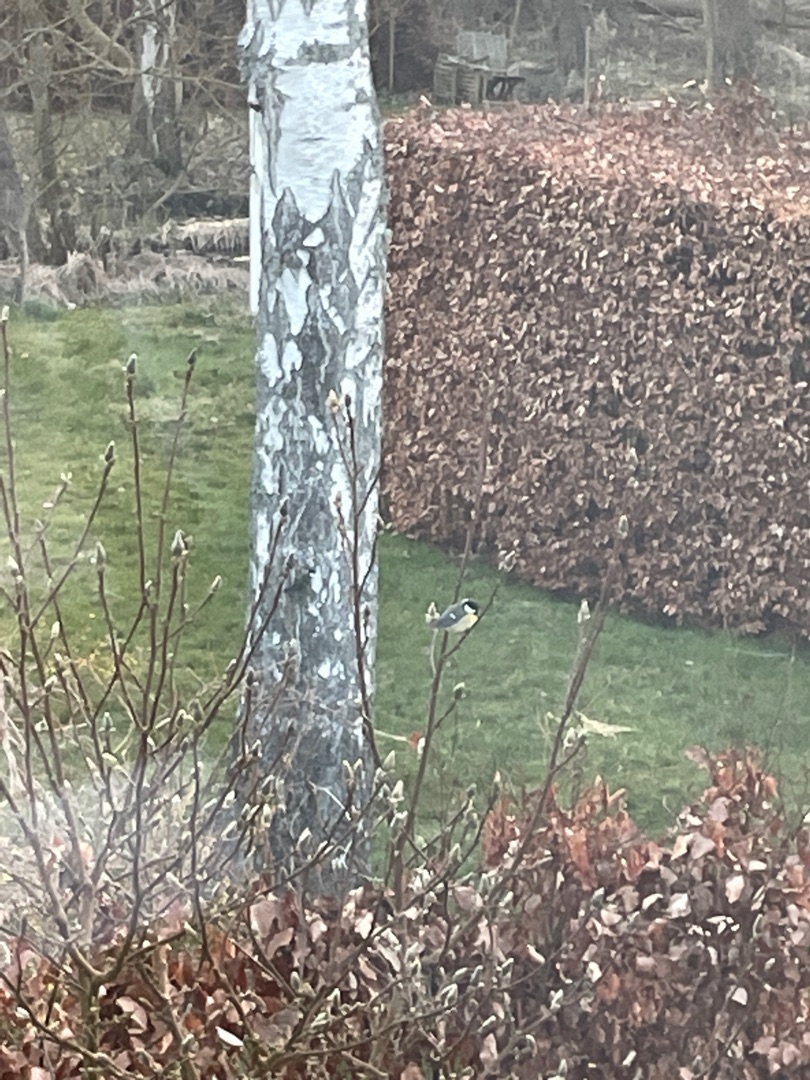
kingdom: Animalia
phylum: Chordata
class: Aves
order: Passeriformes
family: Paridae
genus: Parus
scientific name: Parus major
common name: Musvit
